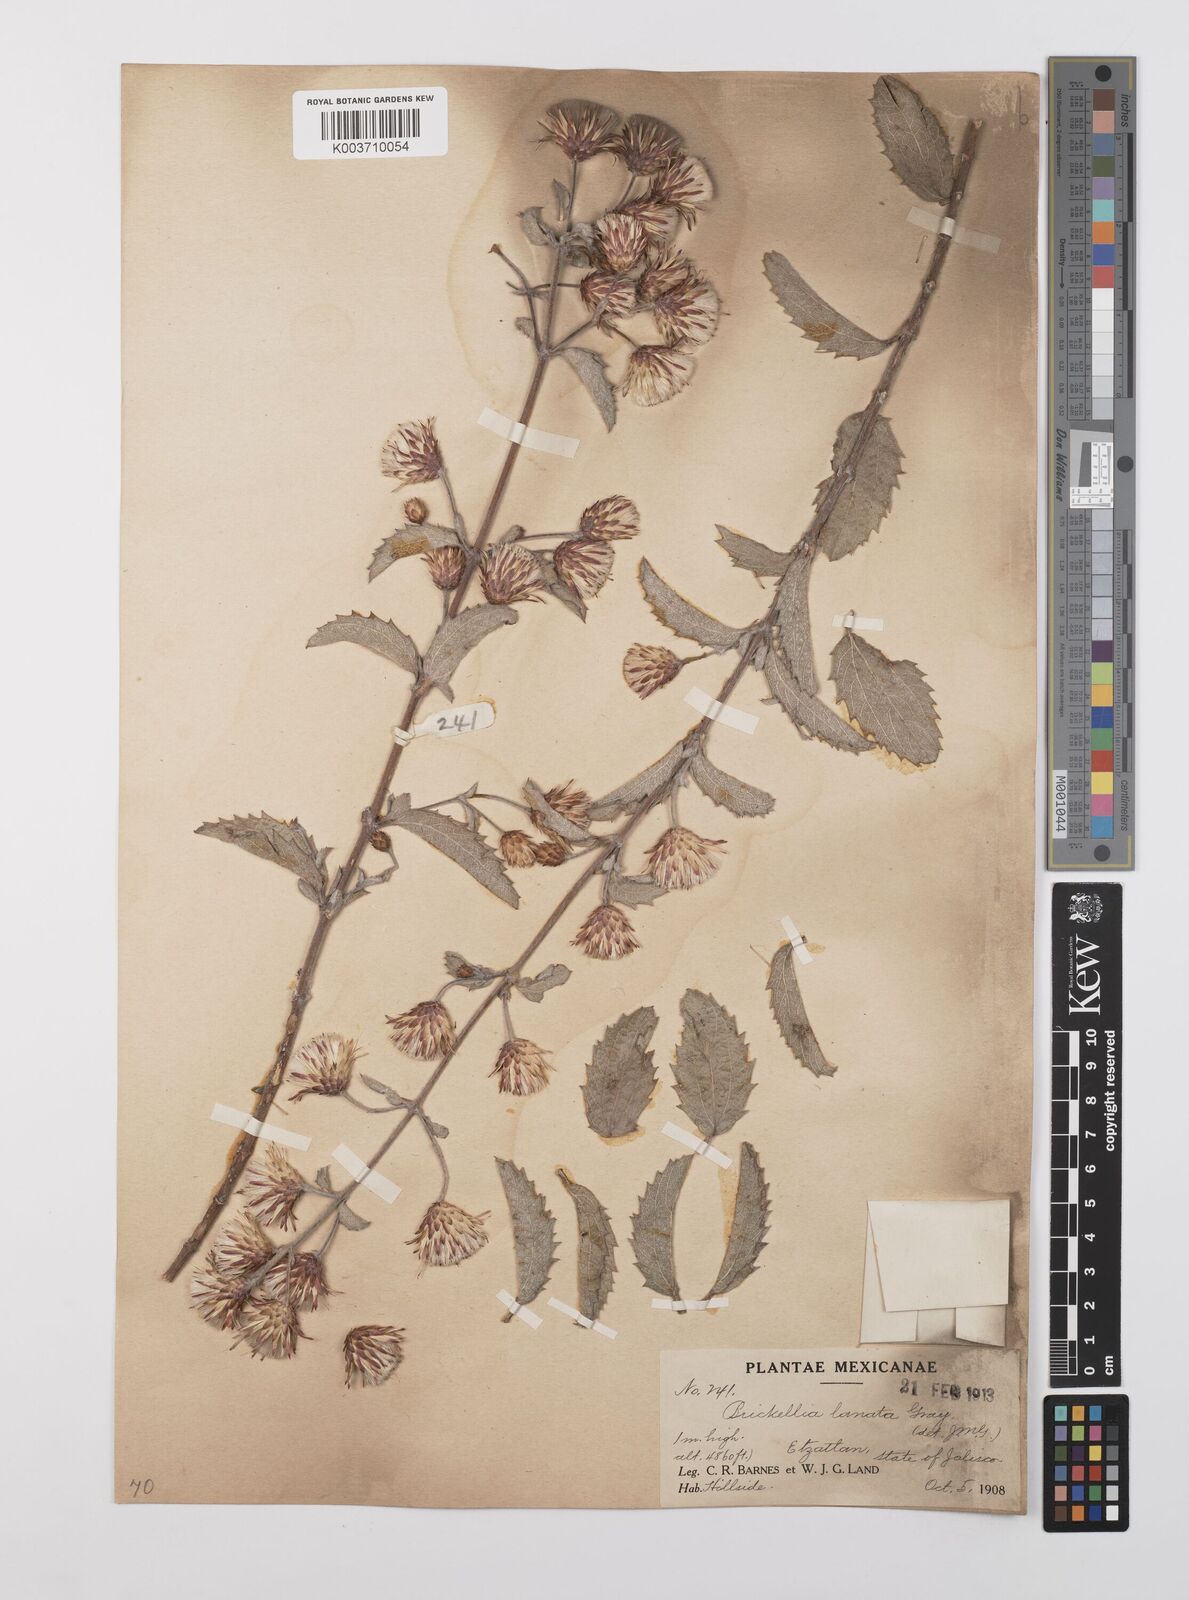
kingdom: Plantae
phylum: Tracheophyta
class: Magnoliopsida
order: Asterales
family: Asteraceae
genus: Brickellia
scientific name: Brickellia lanata
